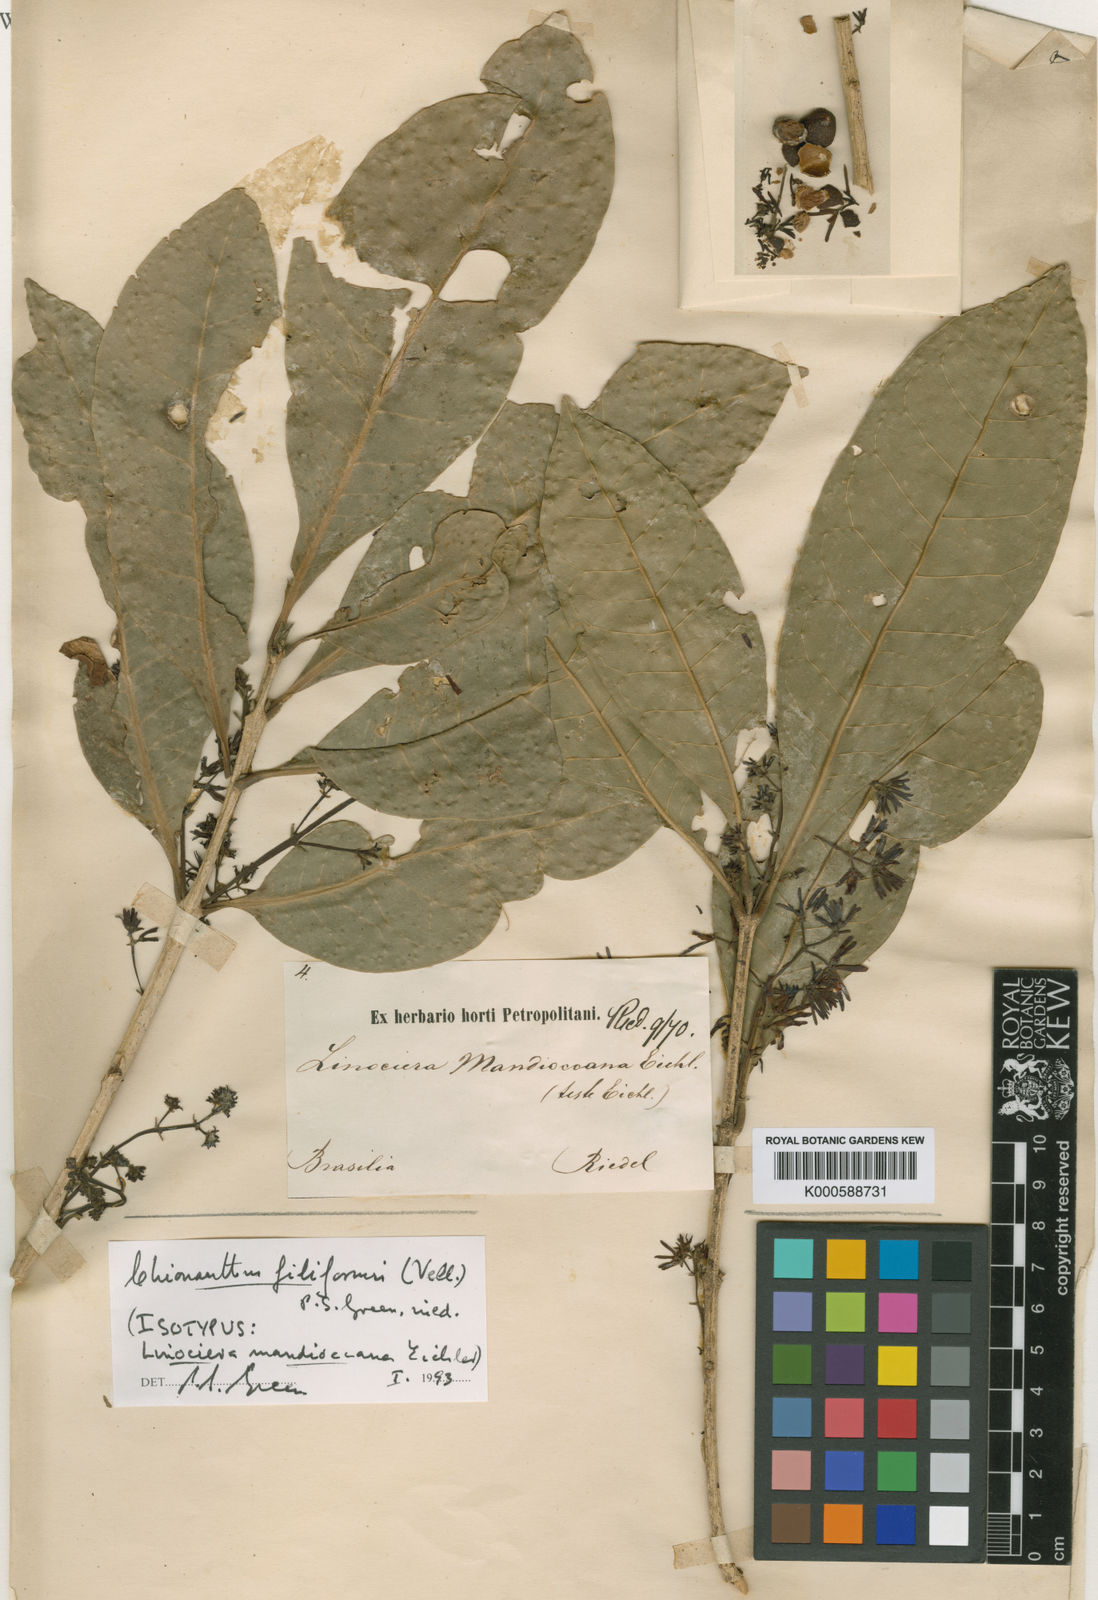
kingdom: Plantae
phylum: Tracheophyta
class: Magnoliopsida
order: Lamiales
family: Oleaceae
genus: Chionanthus
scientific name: Chionanthus filiformis
